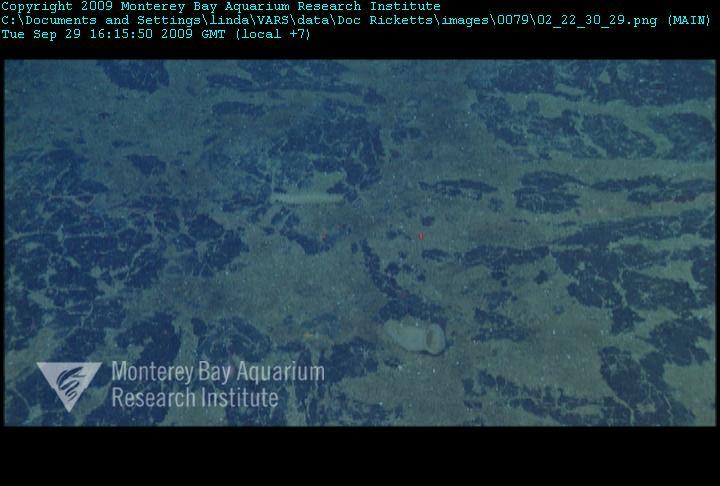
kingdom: Animalia
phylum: Porifera
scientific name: Porifera
